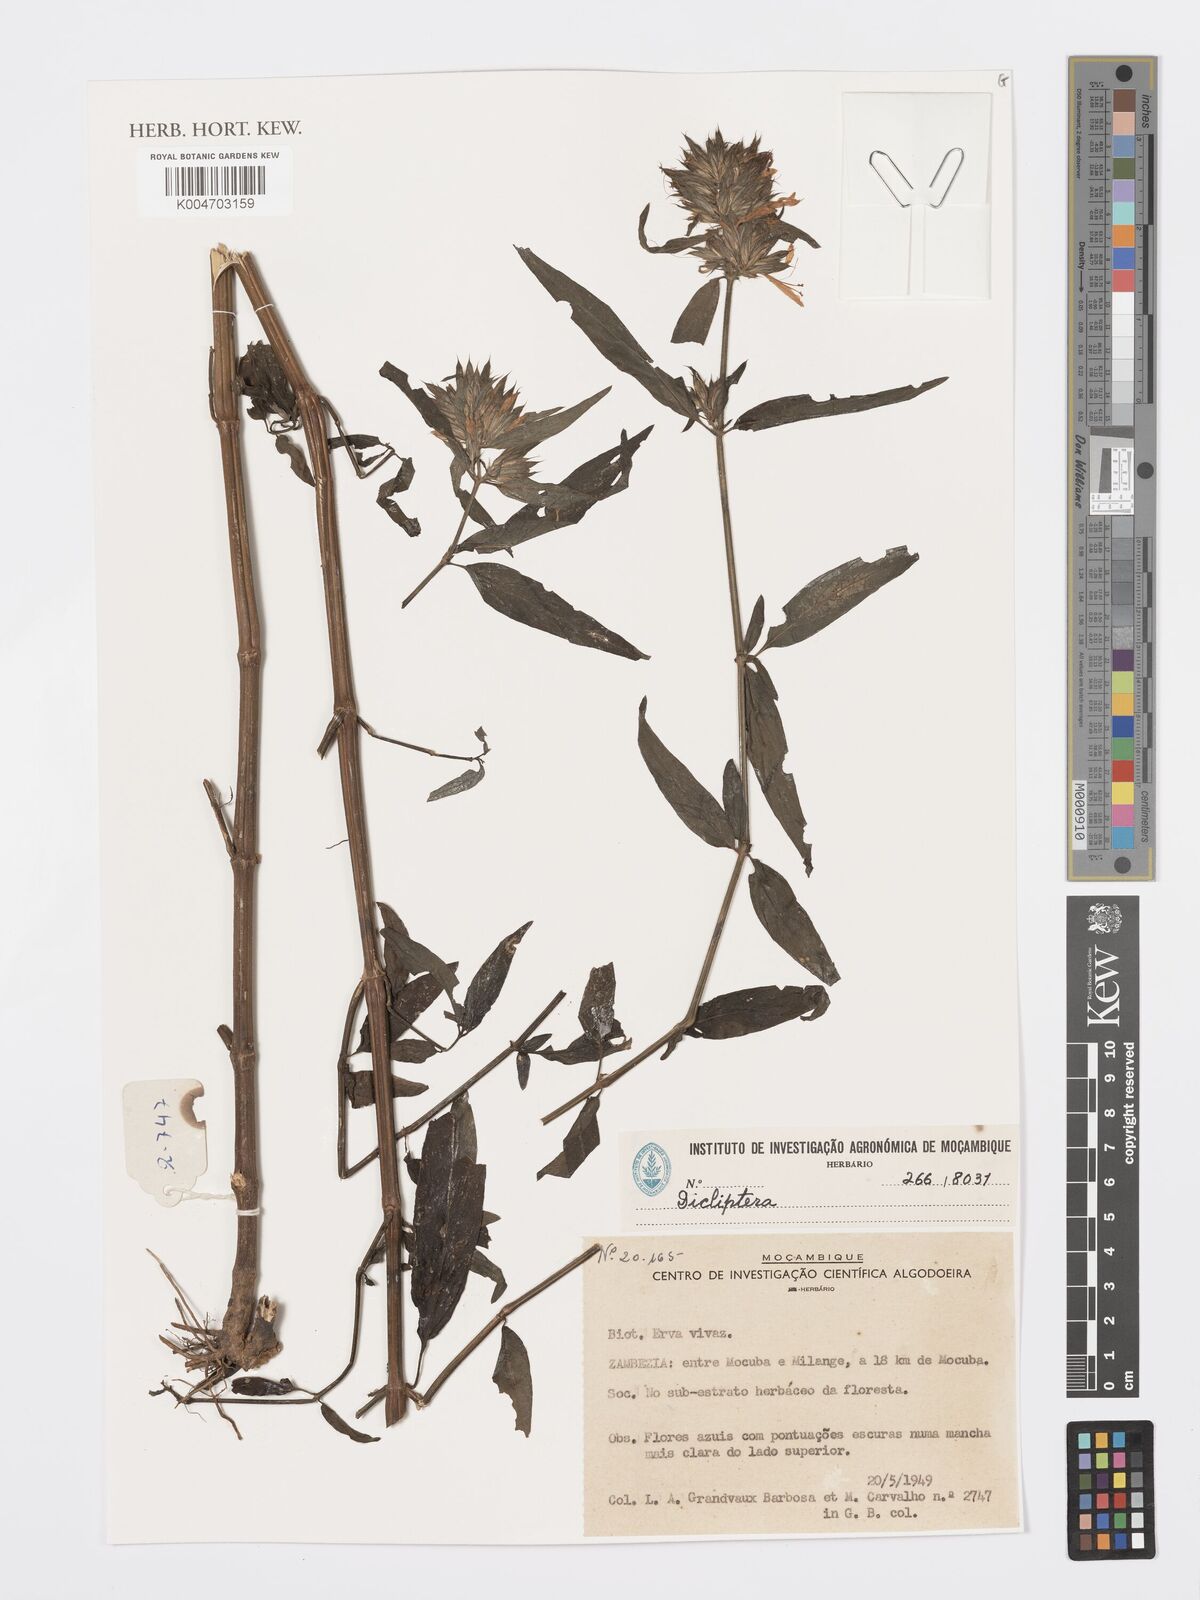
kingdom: Plantae
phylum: Tracheophyta
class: Magnoliopsida
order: Lamiales
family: Acanthaceae
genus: Dicliptera
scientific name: Dicliptera clinopodia
